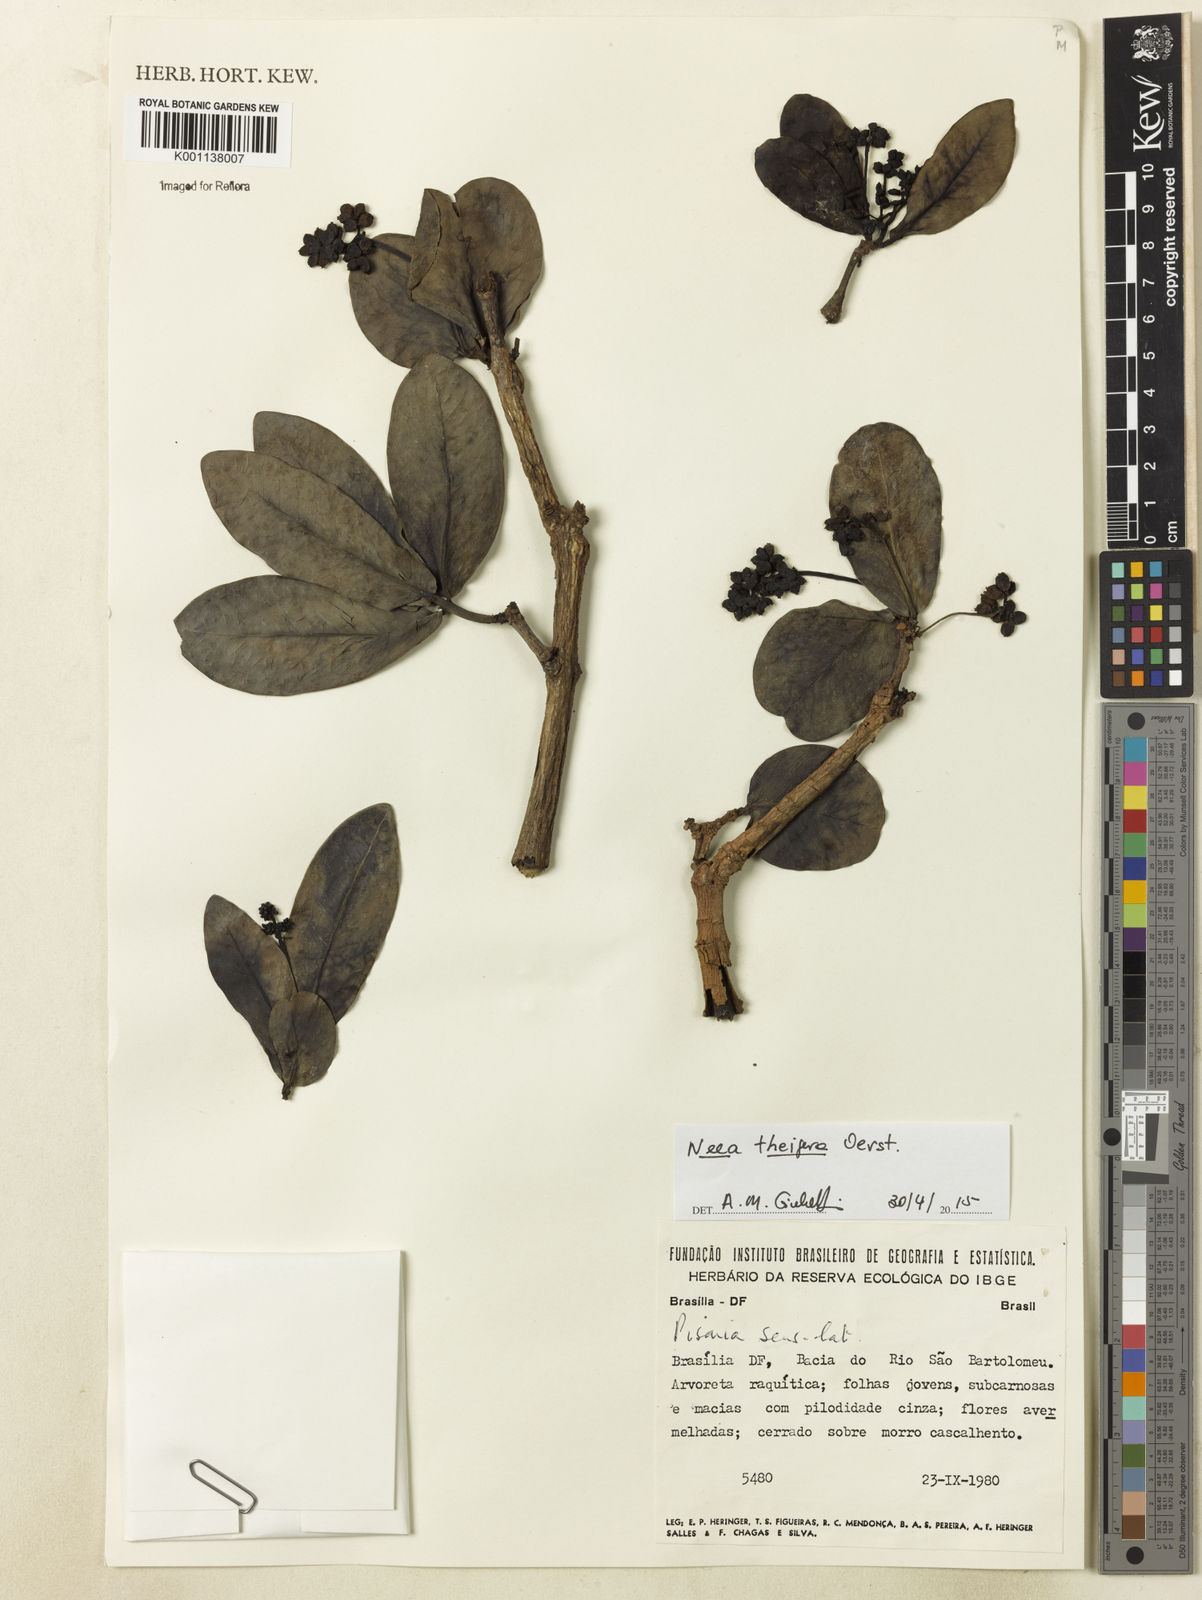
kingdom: Plantae
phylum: Tracheophyta
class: Magnoliopsida
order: Caryophyllales
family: Nyctaginaceae
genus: Neea
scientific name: Neea theifera
